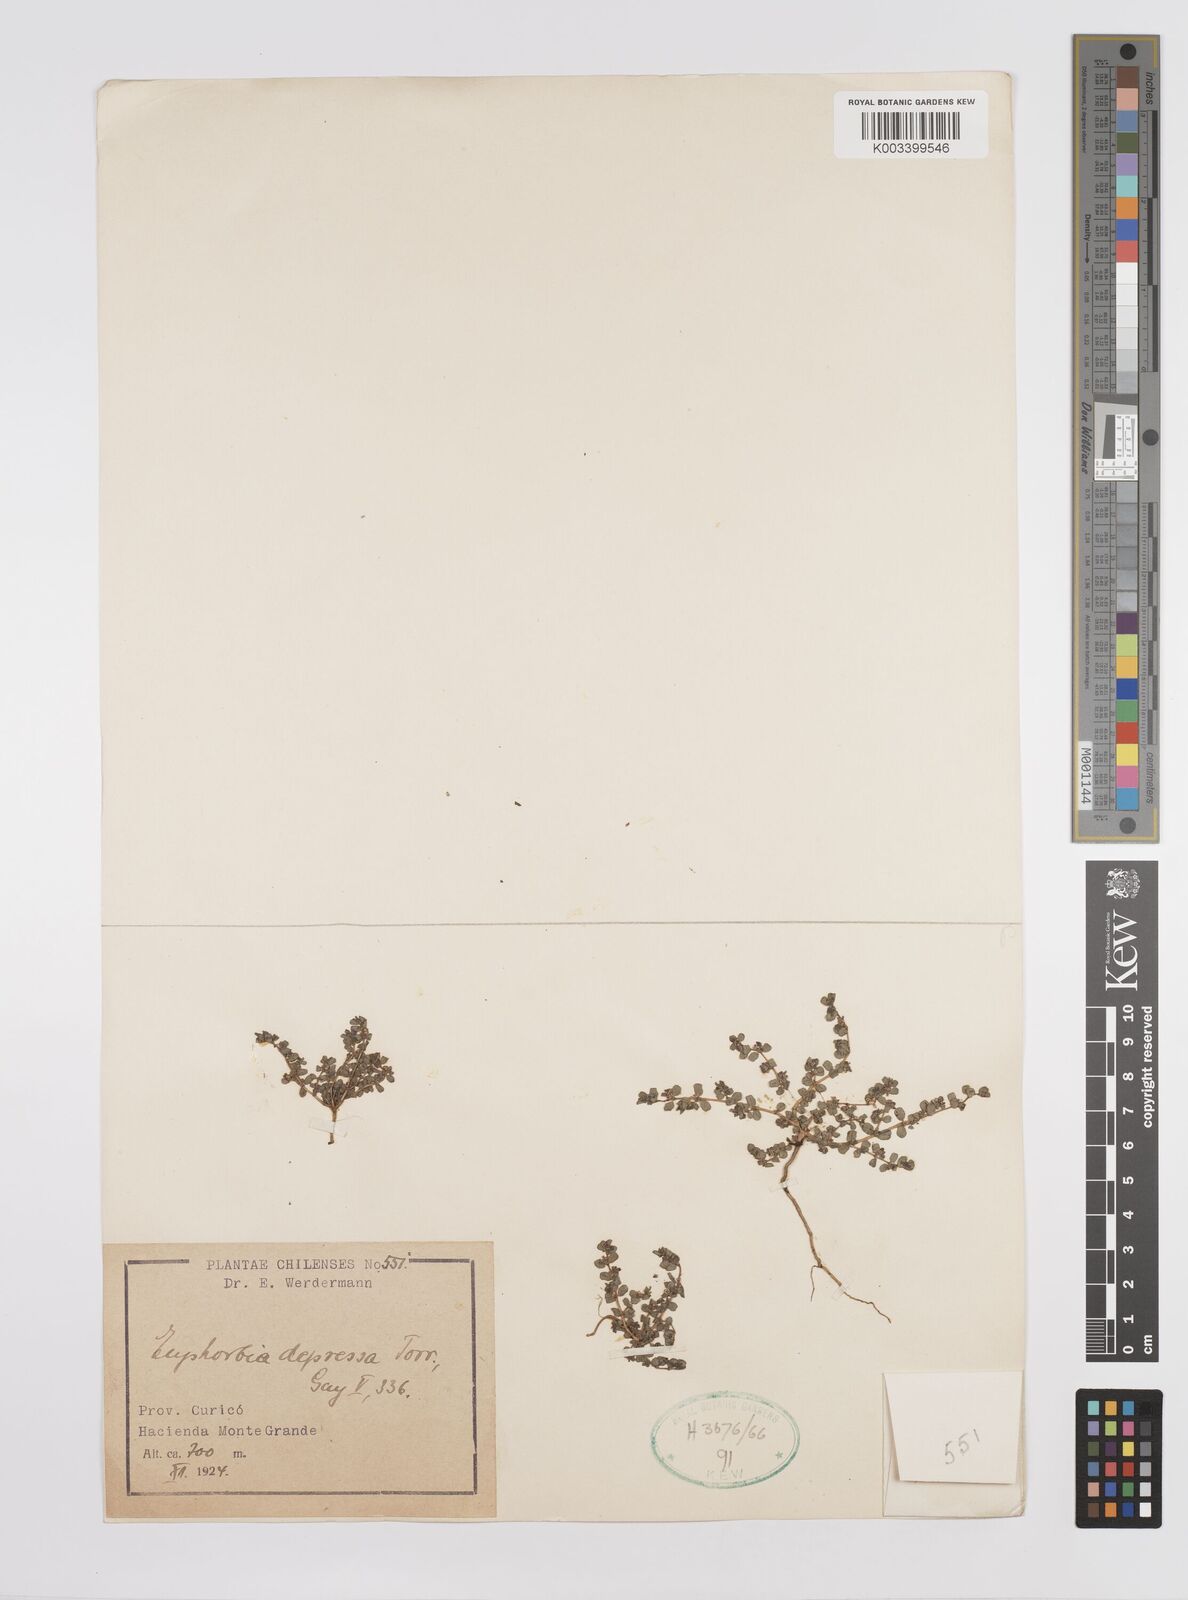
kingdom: Plantae
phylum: Tracheophyta
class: Magnoliopsida
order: Malpighiales
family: Euphorbiaceae
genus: Euphorbia
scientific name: Euphorbia maculata
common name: Spotted spurge
